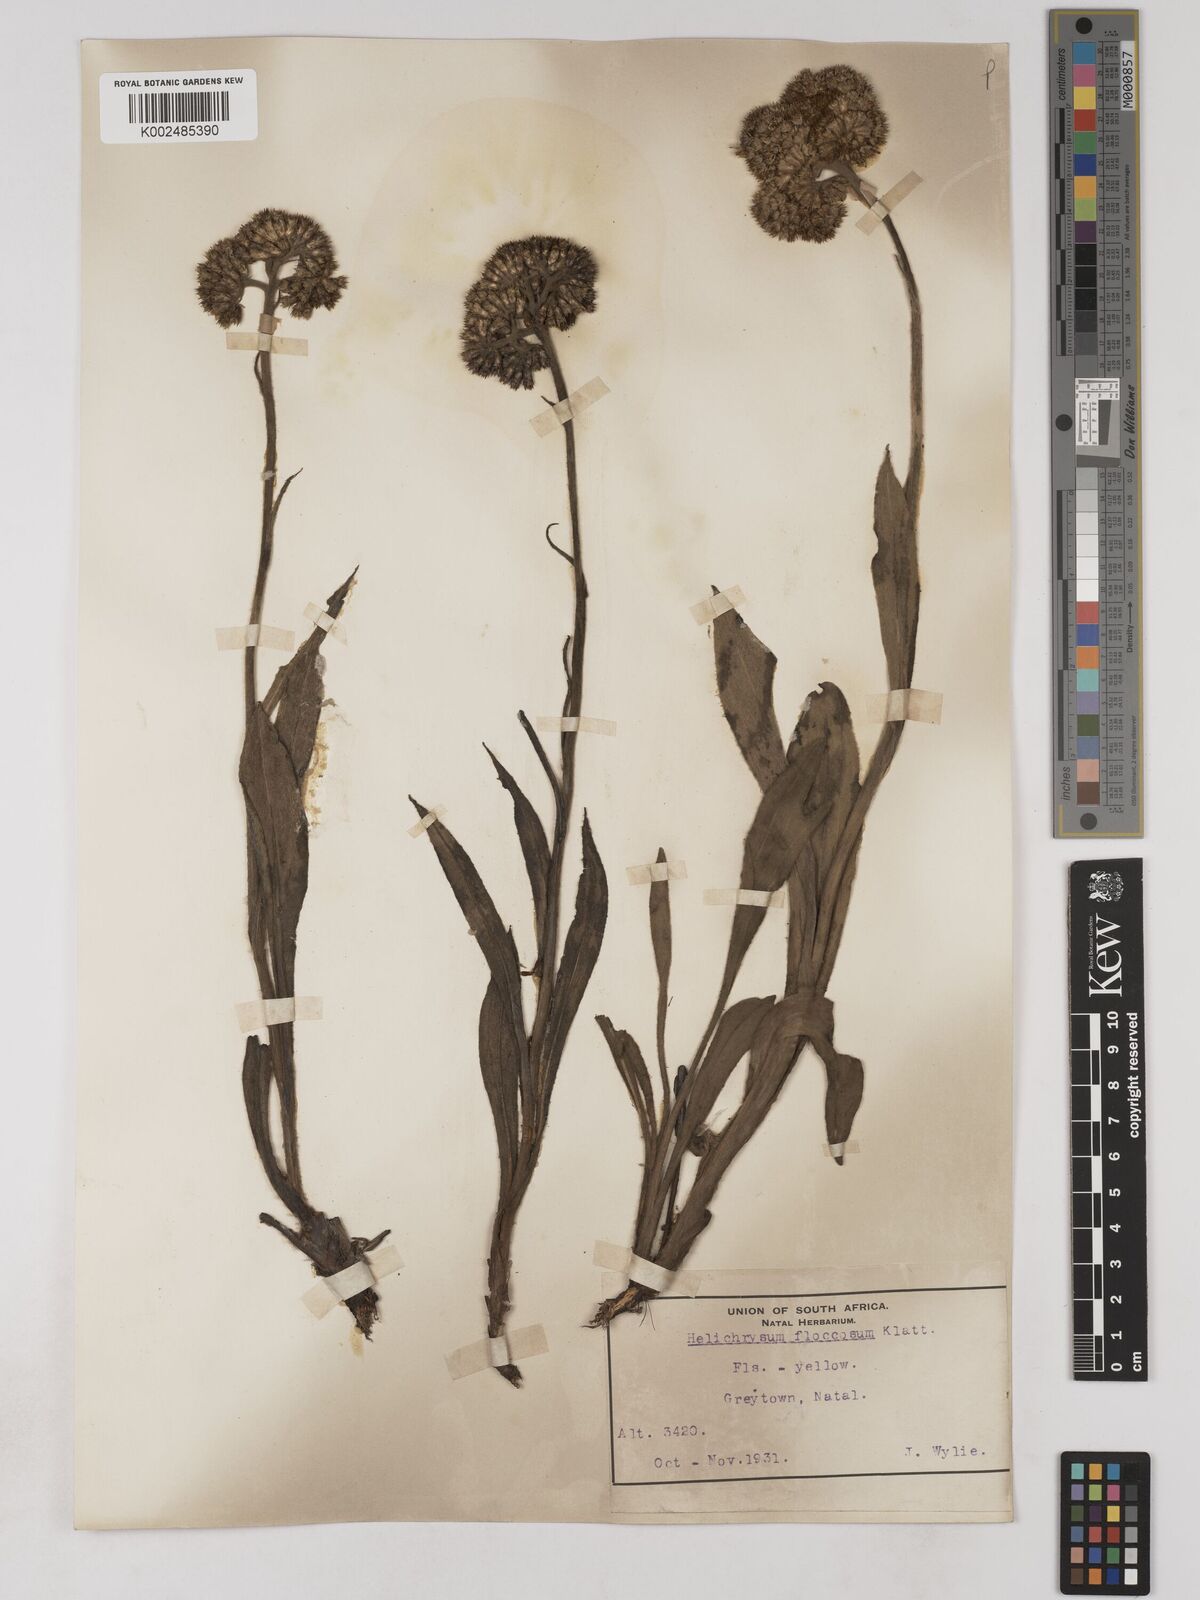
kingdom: Plantae
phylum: Tracheophyta
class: Magnoliopsida
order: Asterales
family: Asteraceae
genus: Helichrysum
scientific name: Helichrysum acutatum
